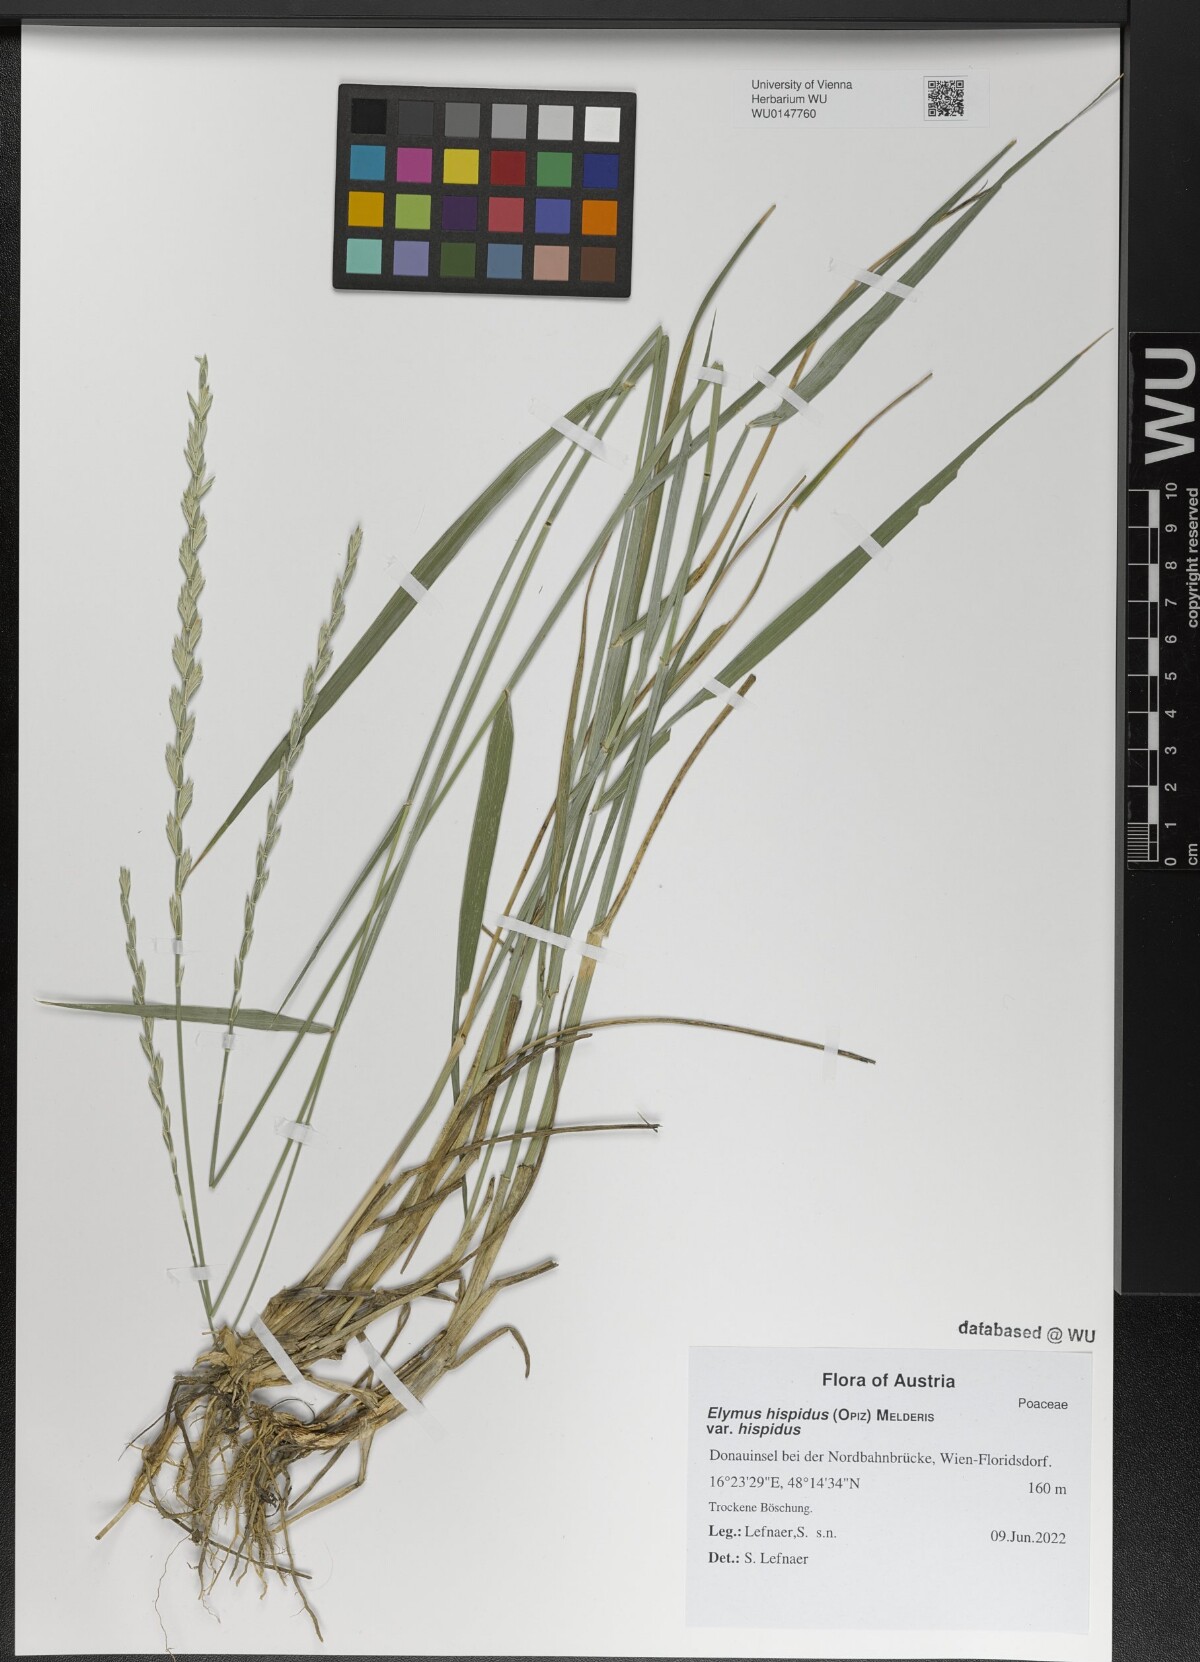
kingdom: Plantae
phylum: Tracheophyta
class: Liliopsida
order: Poales
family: Poaceae
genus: Thinopyrum
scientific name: Thinopyrum intermedium
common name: Intermediate wheatgrass
